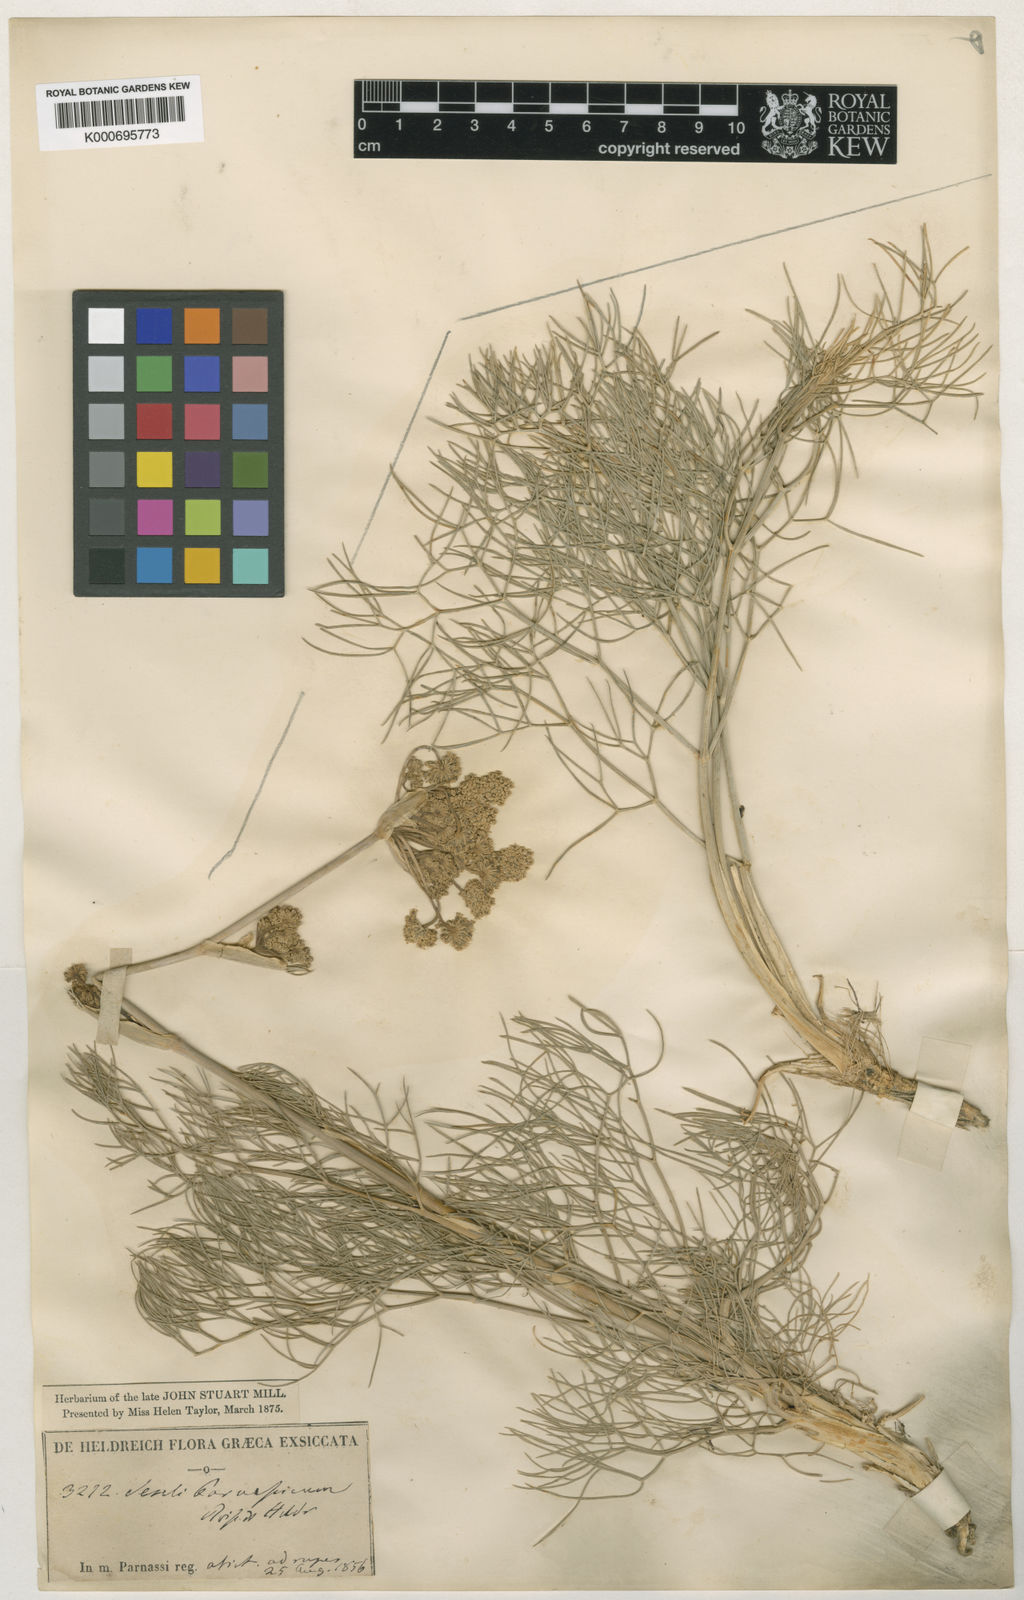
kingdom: Plantae
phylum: Tracheophyta
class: Magnoliopsida
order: Apiales
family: Apiaceae
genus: Seseli
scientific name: Seseli parnassicum
